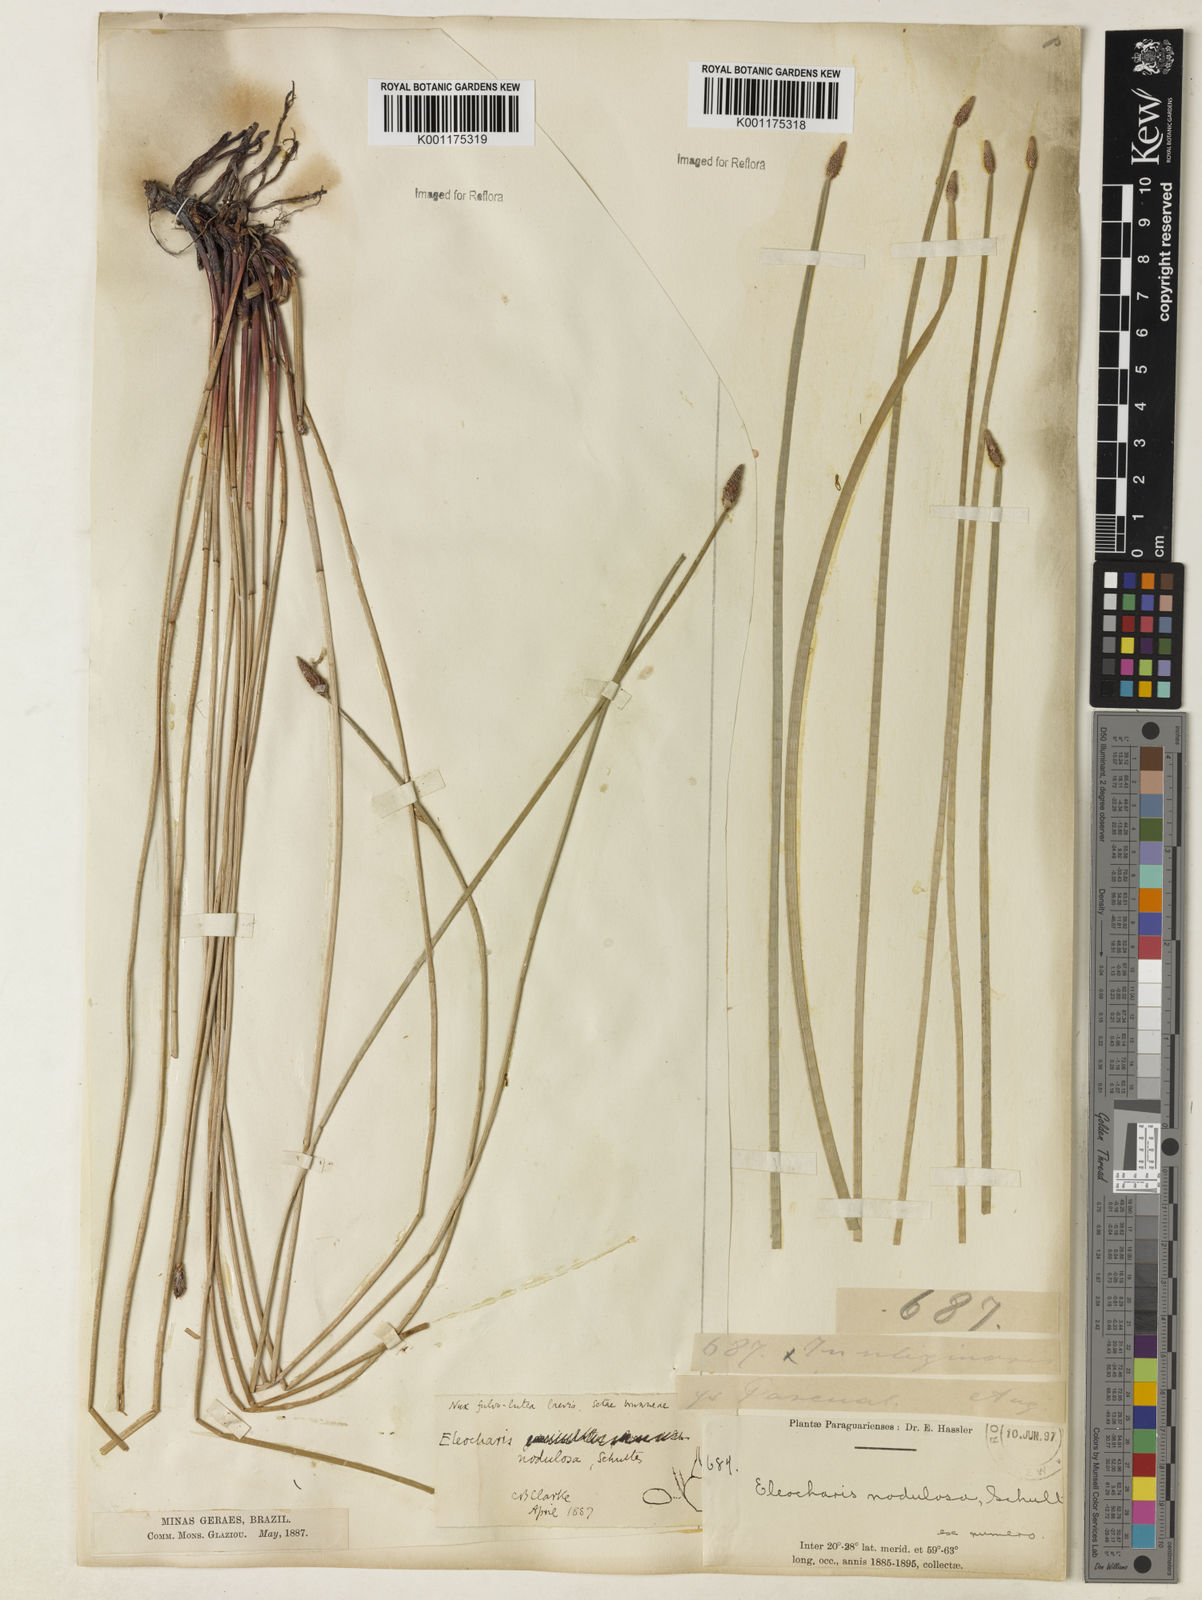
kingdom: Plantae
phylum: Tracheophyta
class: Liliopsida
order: Poales
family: Cyperaceae
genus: Eleocharis
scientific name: Eleocharis montana
